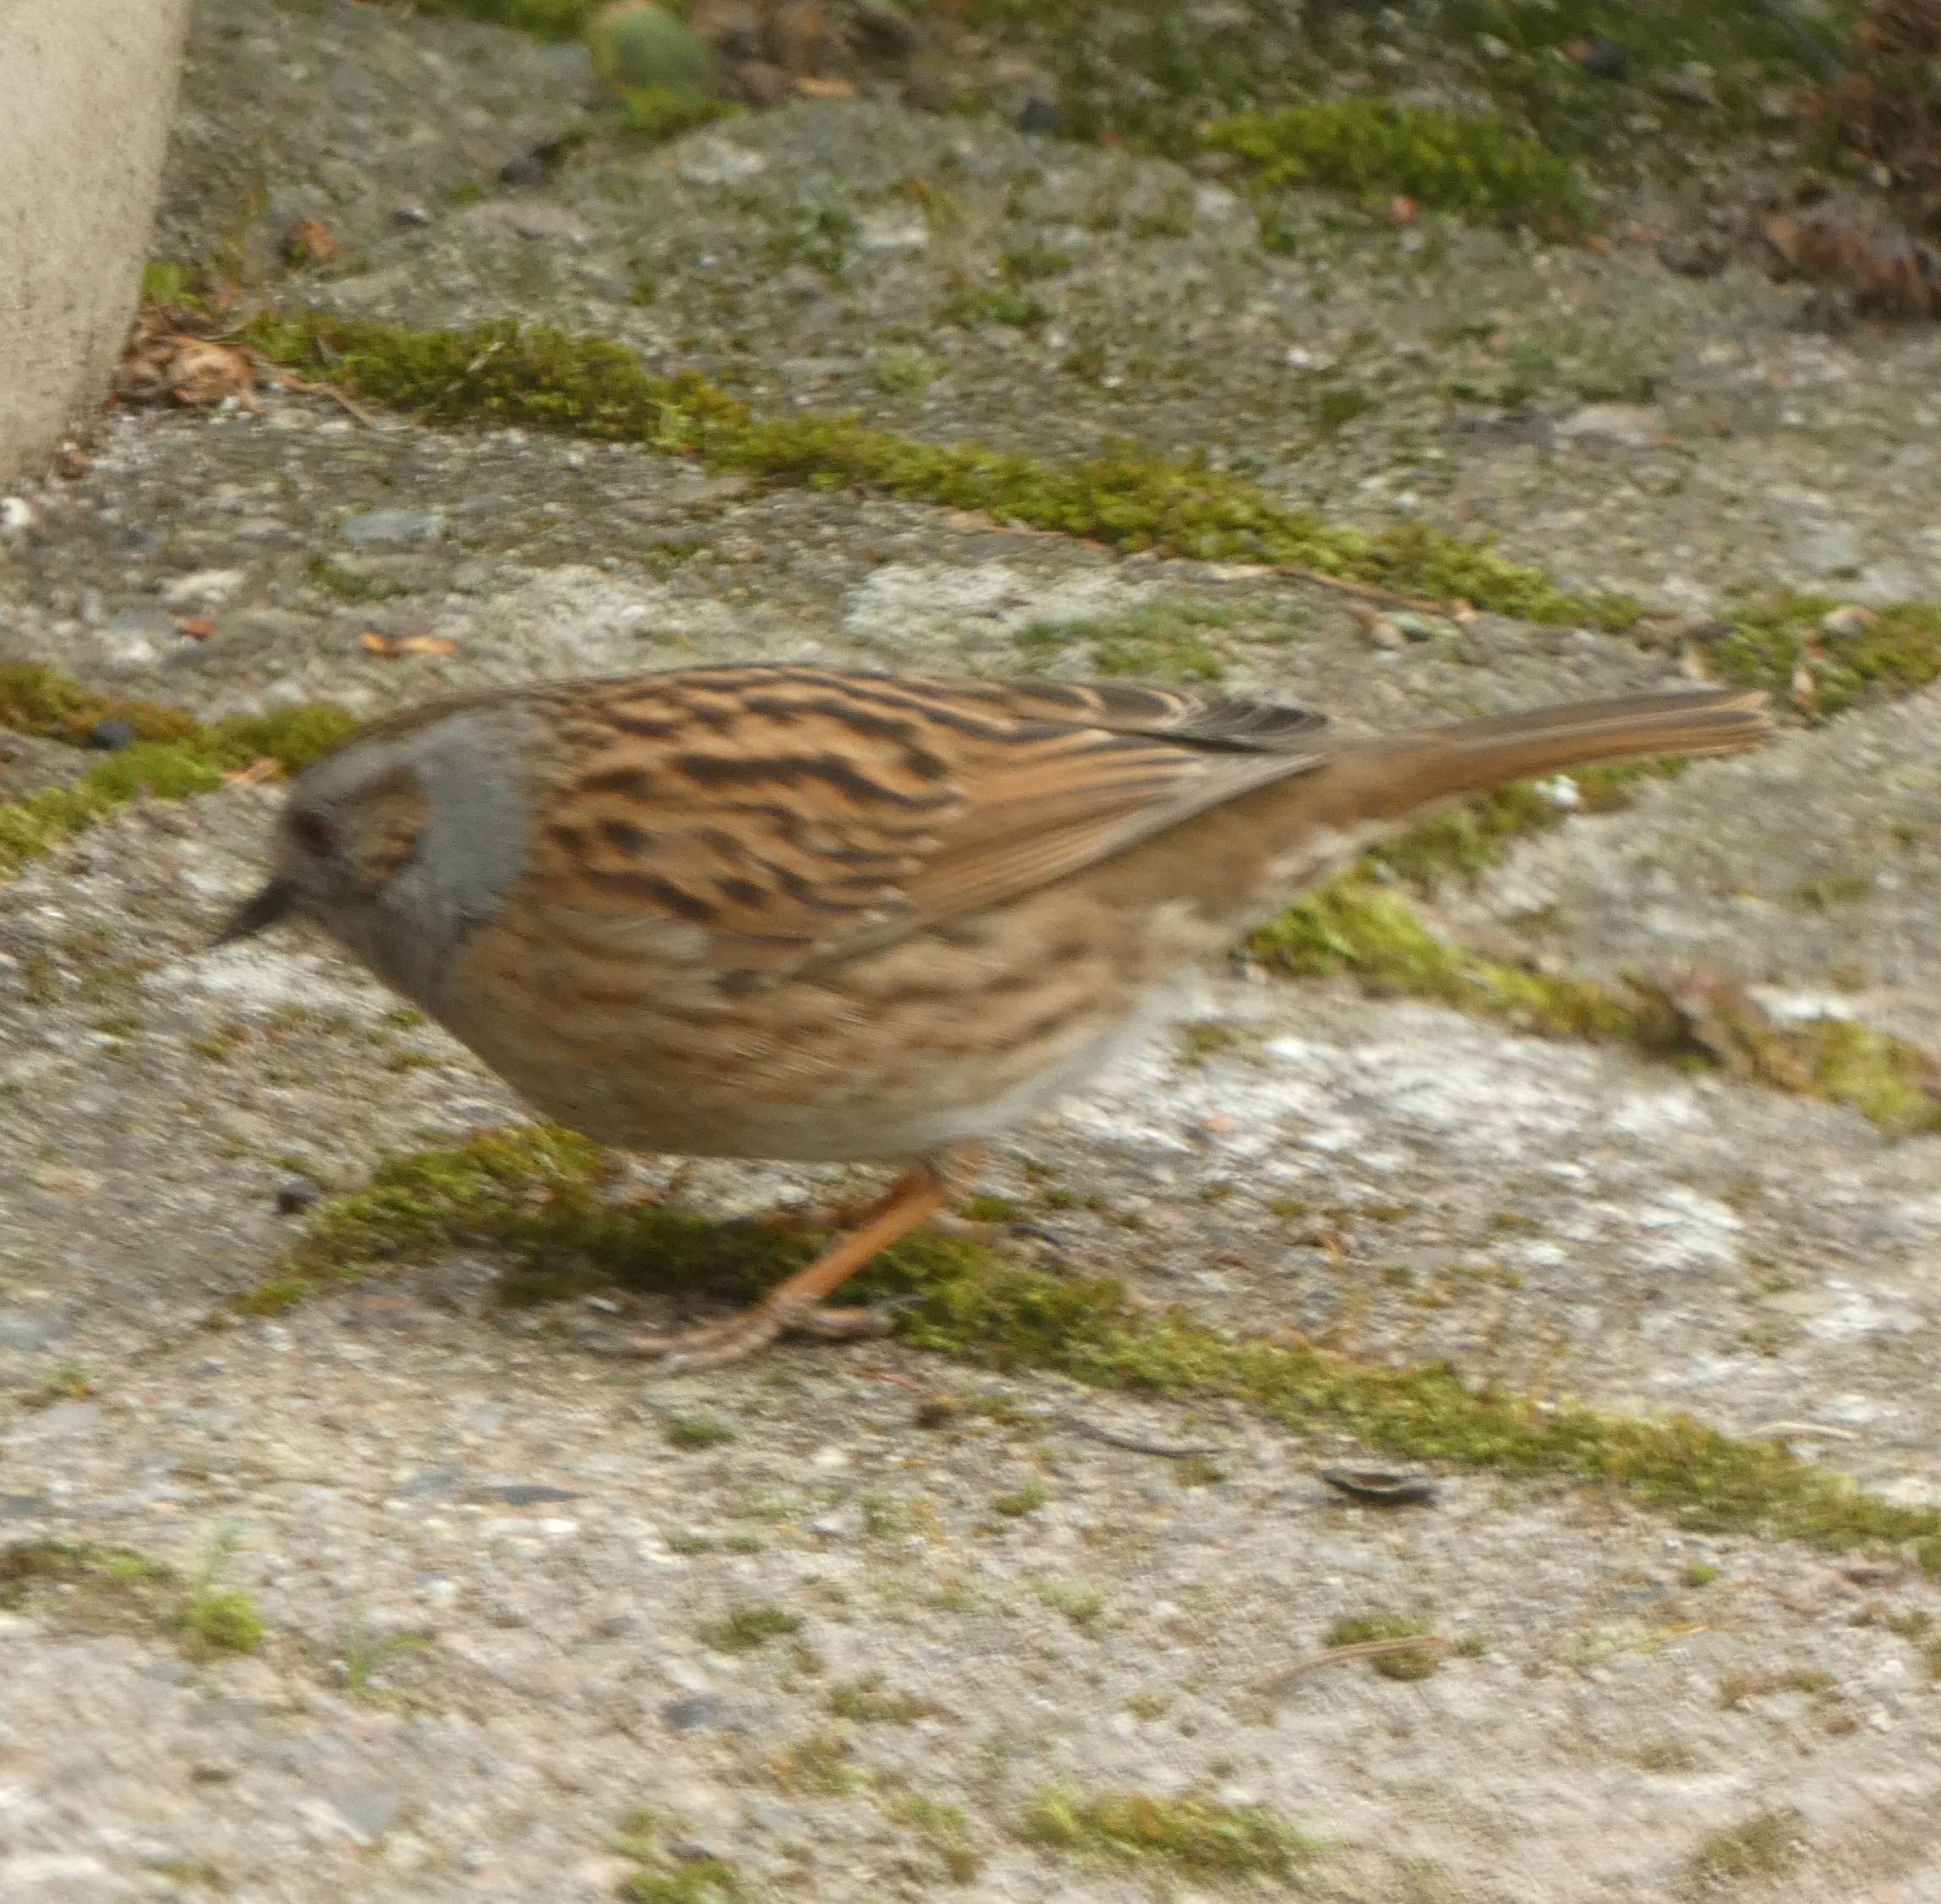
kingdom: Animalia
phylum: Chordata
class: Aves
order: Passeriformes
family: Prunellidae
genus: Prunella
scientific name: Prunella modularis
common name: Jernspurv
